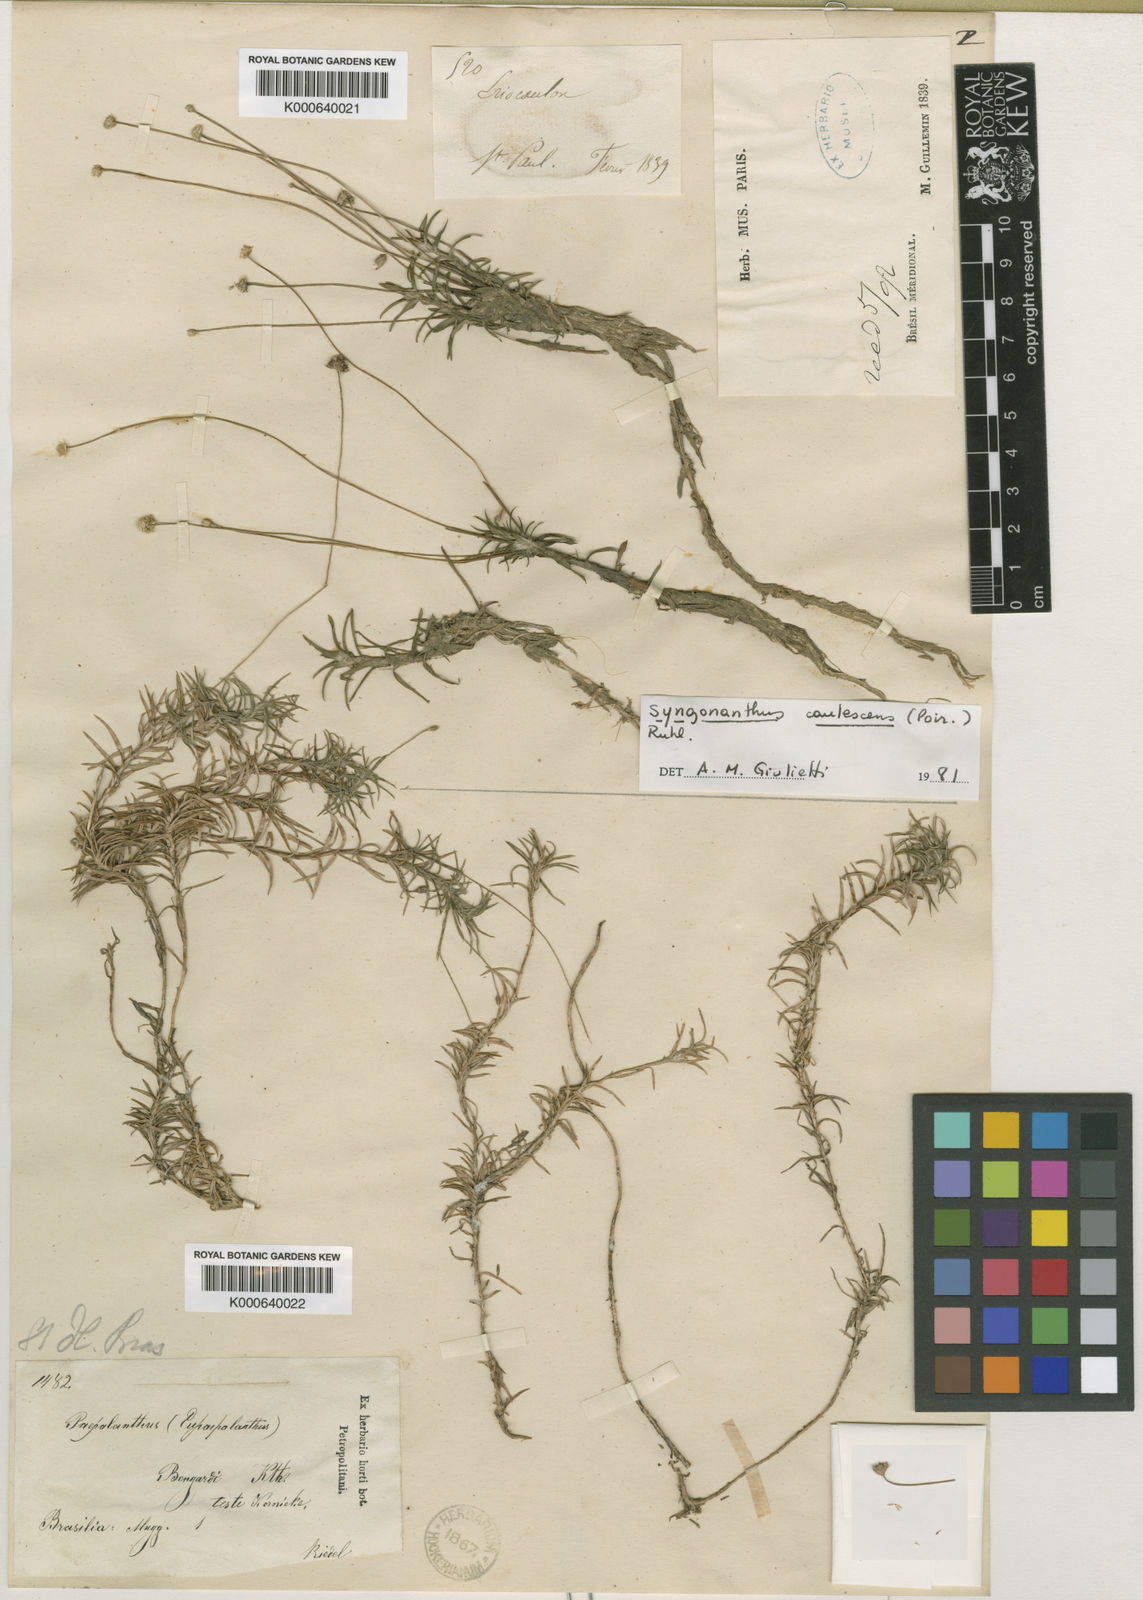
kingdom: Plantae
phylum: Tracheophyta
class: Liliopsida
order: Poales
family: Eriocaulaceae
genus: Paepalanthus
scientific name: Paepalanthus bongardii
